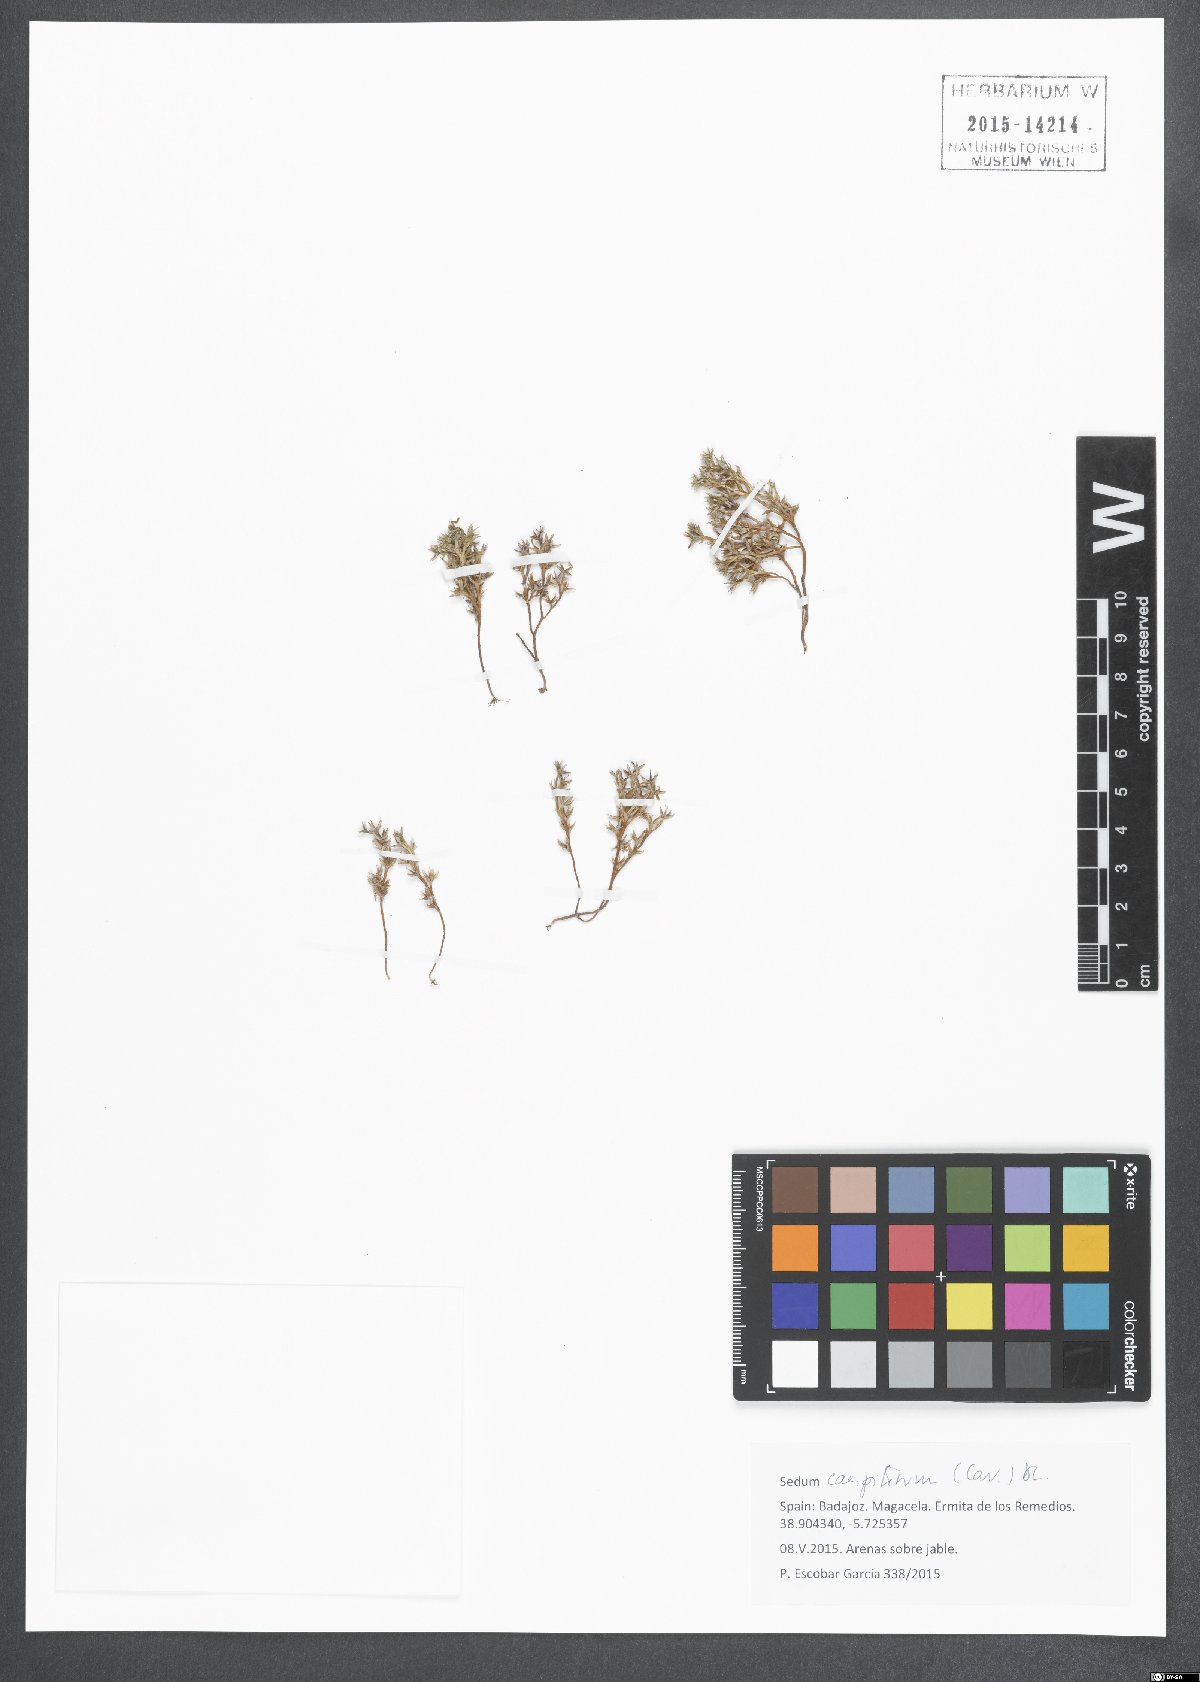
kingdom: Plantae
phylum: Tracheophyta
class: Magnoliopsida
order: Saxifragales
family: Crassulaceae
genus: Sedum
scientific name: Sedum cespitosum
